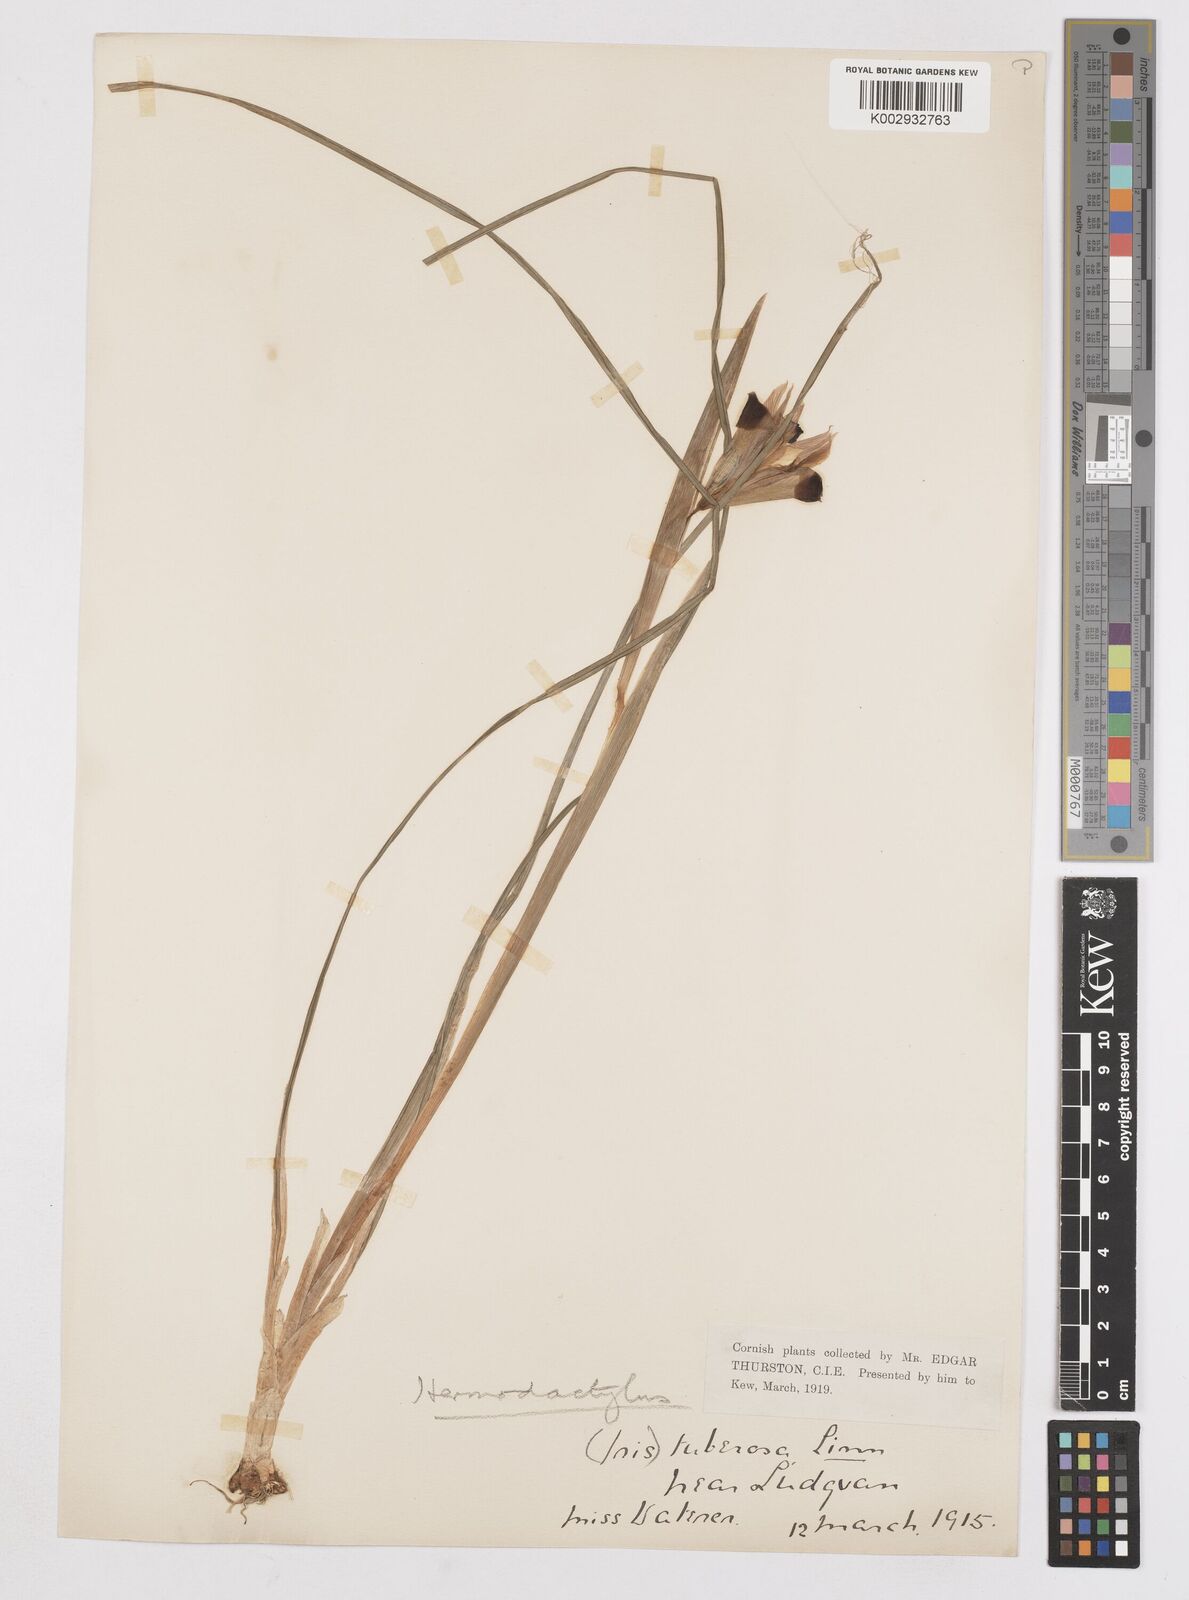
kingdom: Plantae
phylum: Tracheophyta
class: Liliopsida
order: Asparagales
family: Iridaceae
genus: Iris
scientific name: Iris tuberosa
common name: Snake's-head iris
